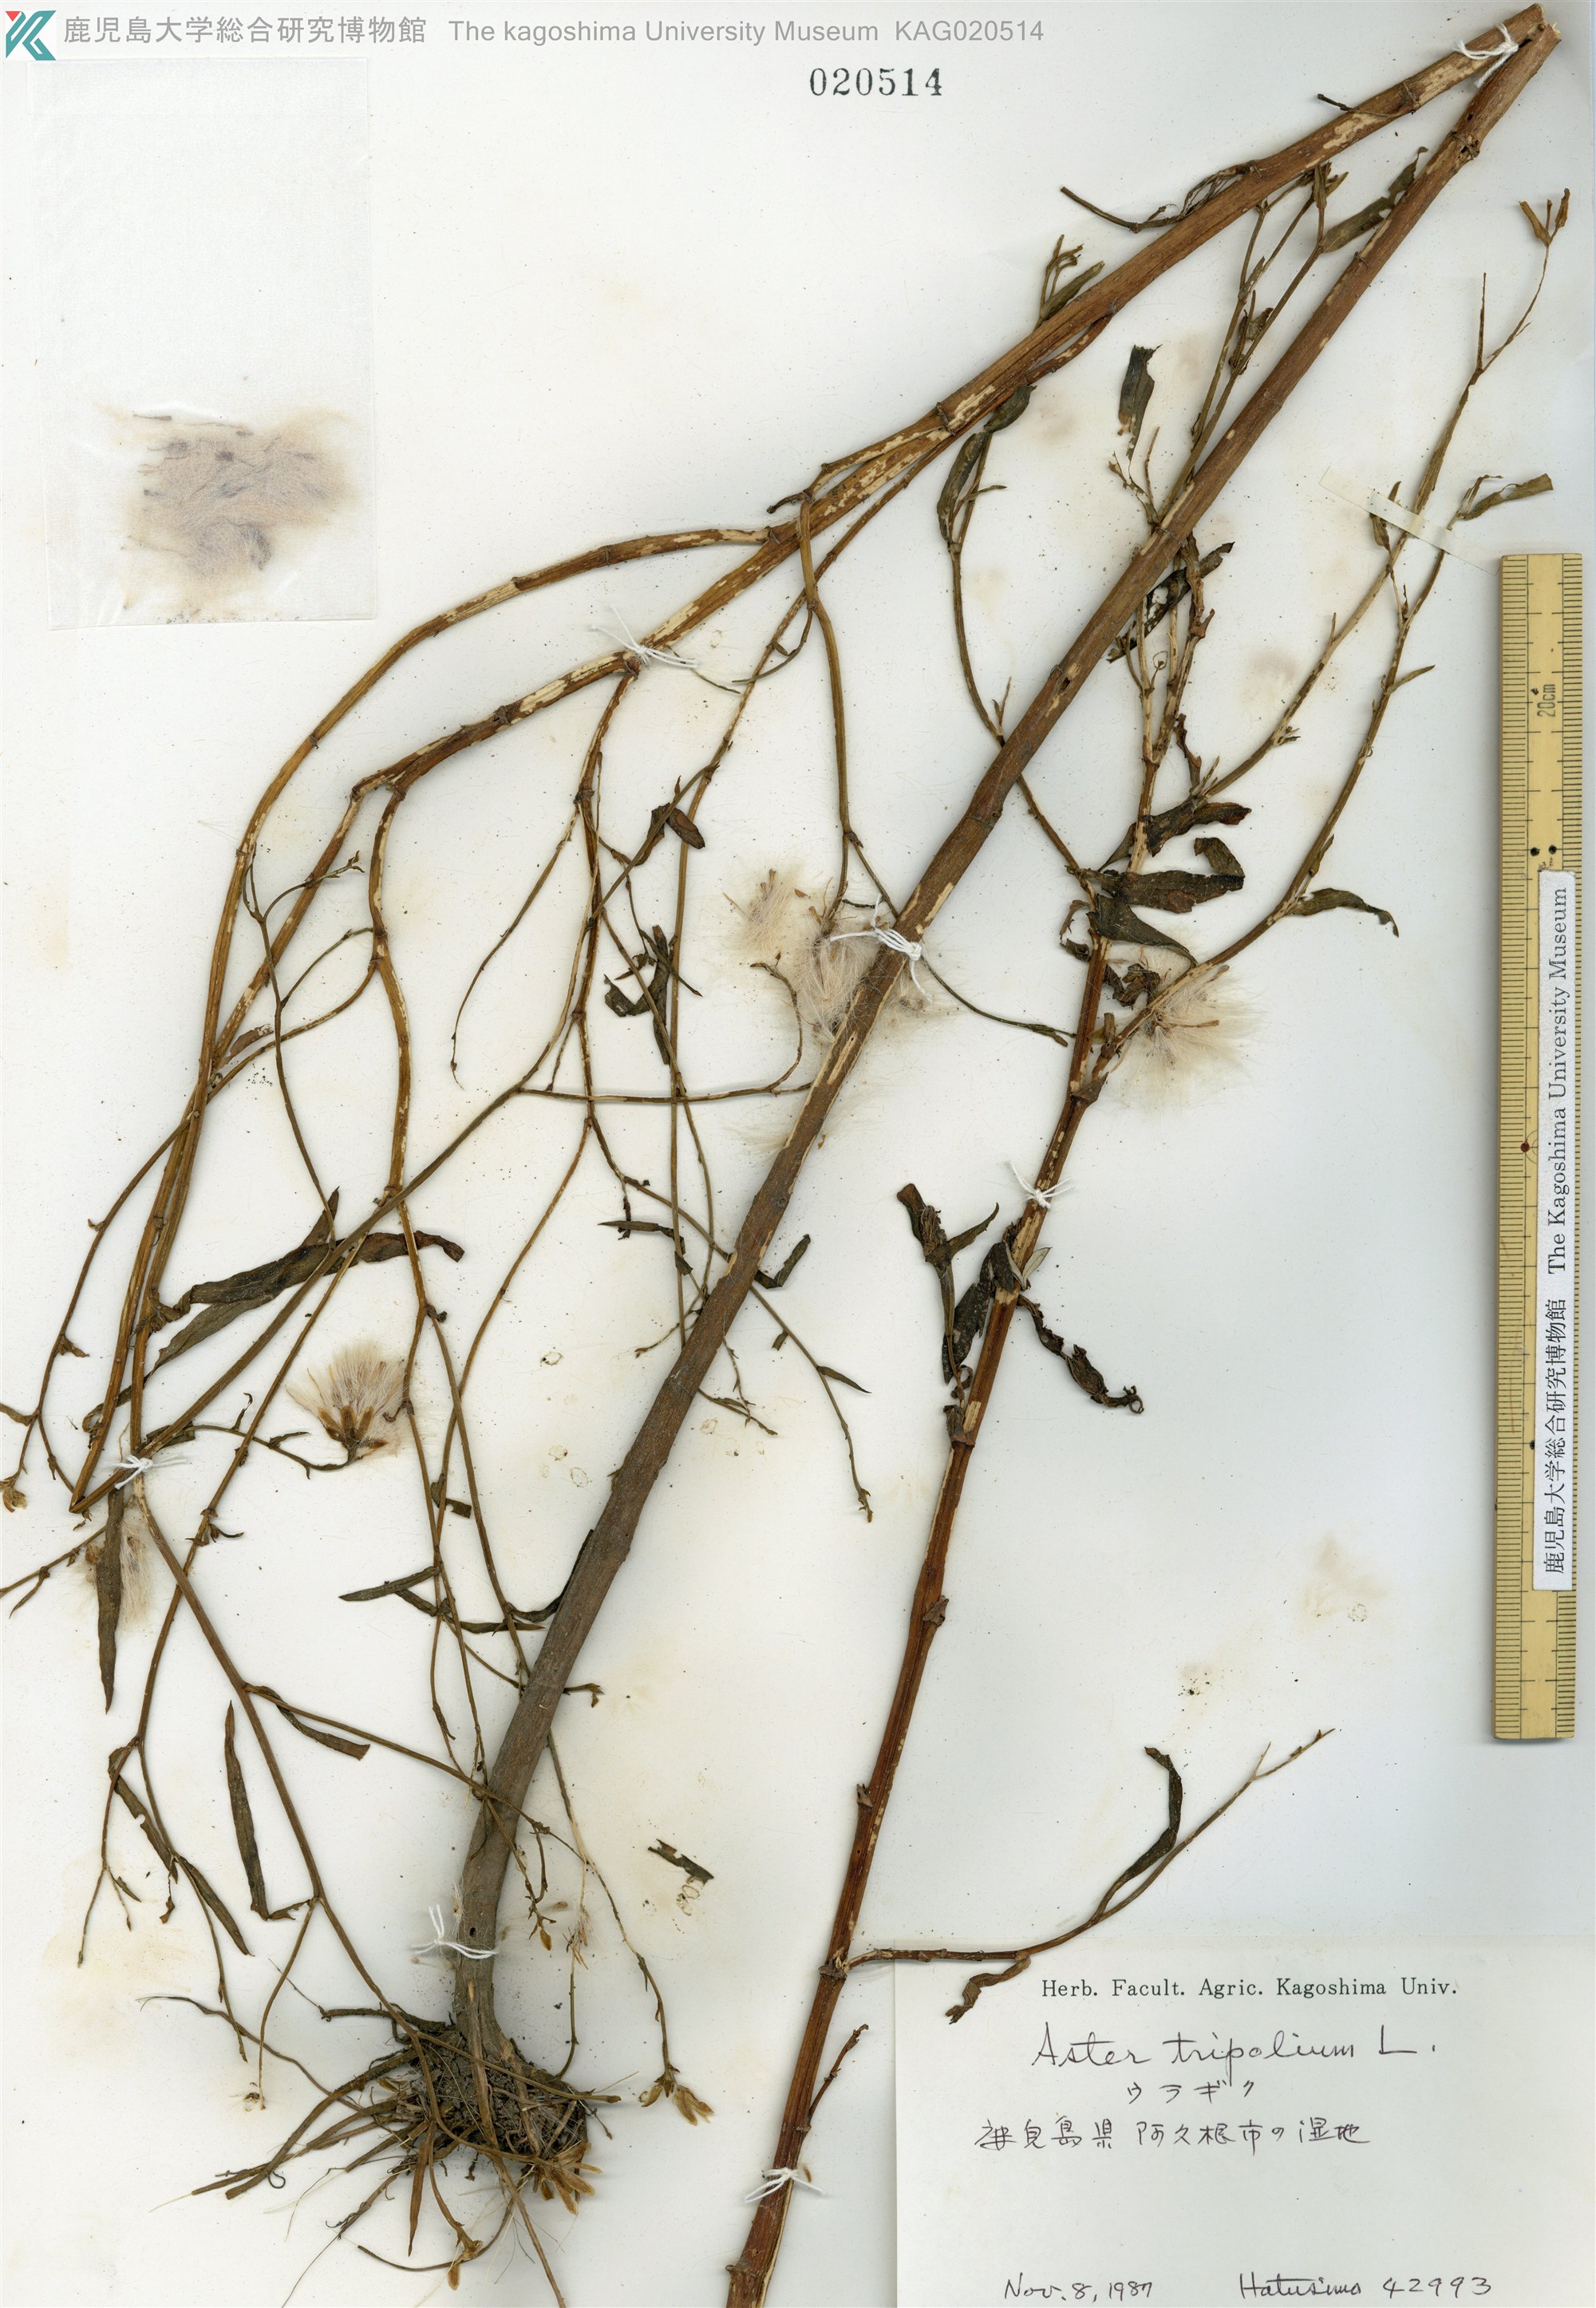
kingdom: Plantae
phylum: Tracheophyta
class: Magnoliopsida
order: Asterales
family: Asteraceae
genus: Tripolium
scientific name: Tripolium pannonicum
